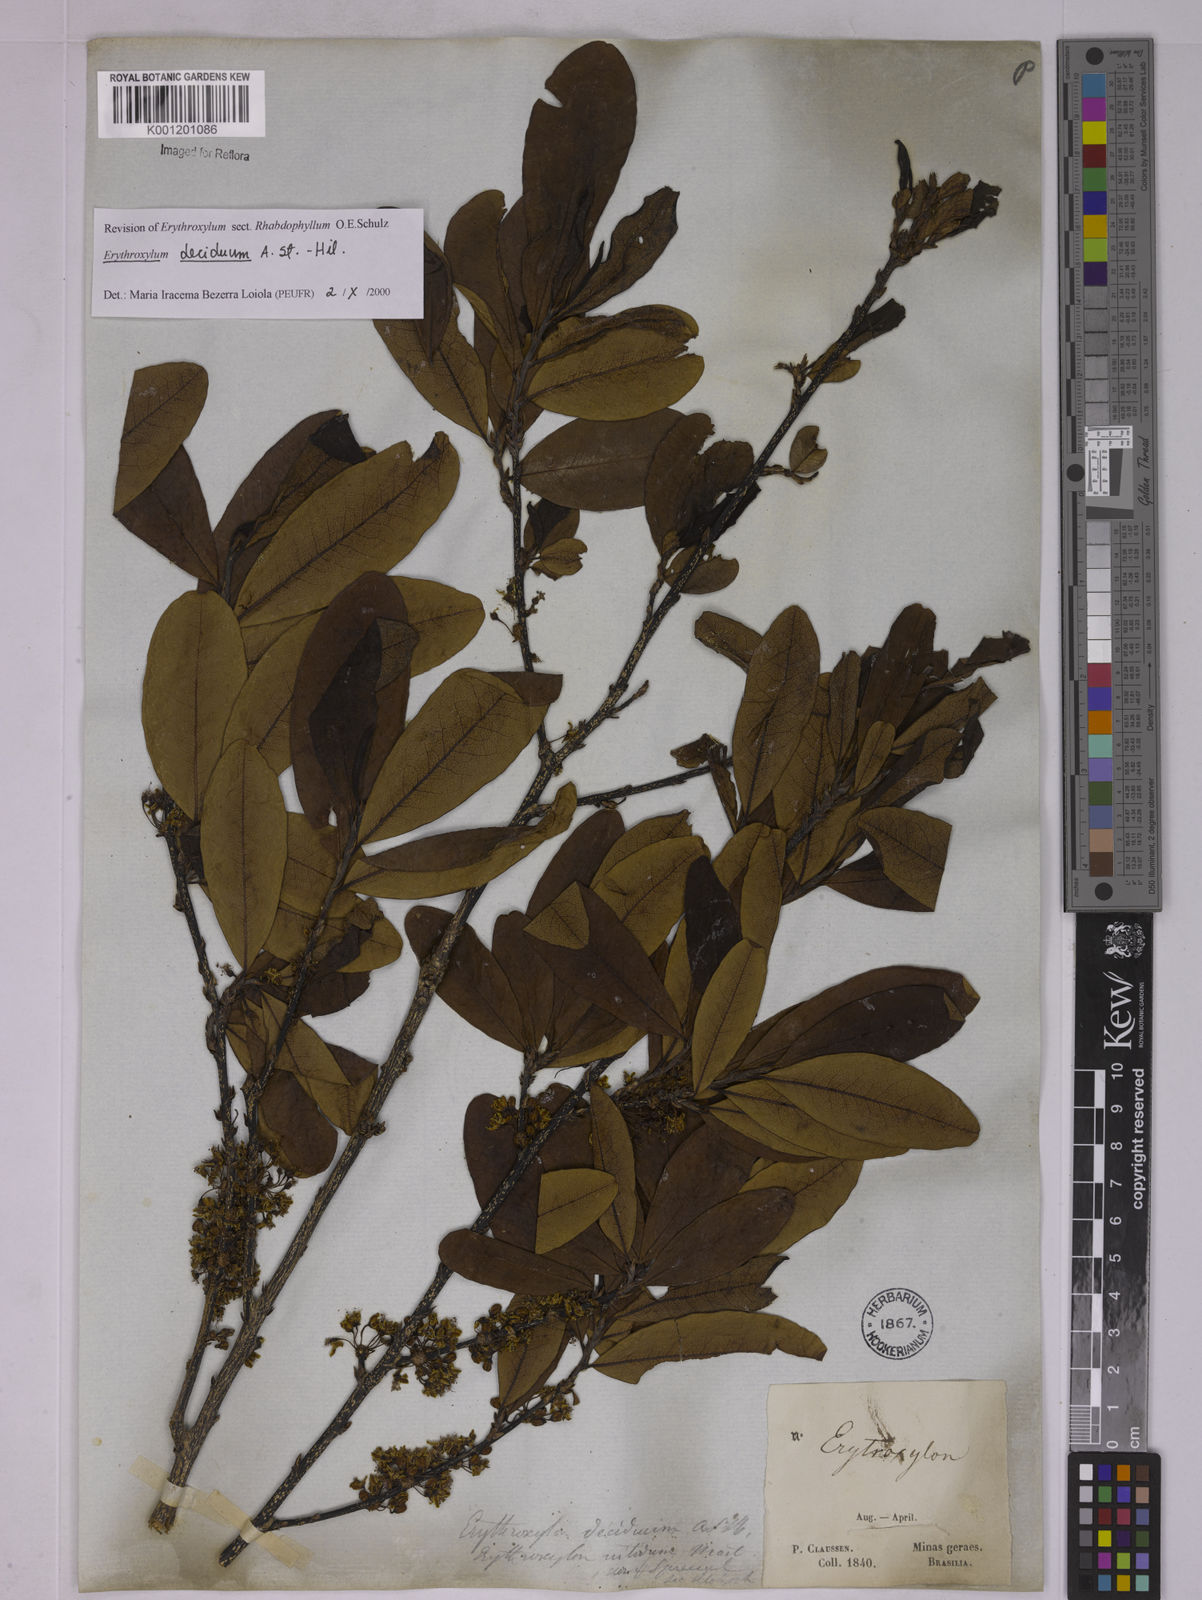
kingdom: Plantae
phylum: Tracheophyta
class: Magnoliopsida
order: Malpighiales
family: Erythroxylaceae
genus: Erythroxylum
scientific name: Erythroxylum deciduum
